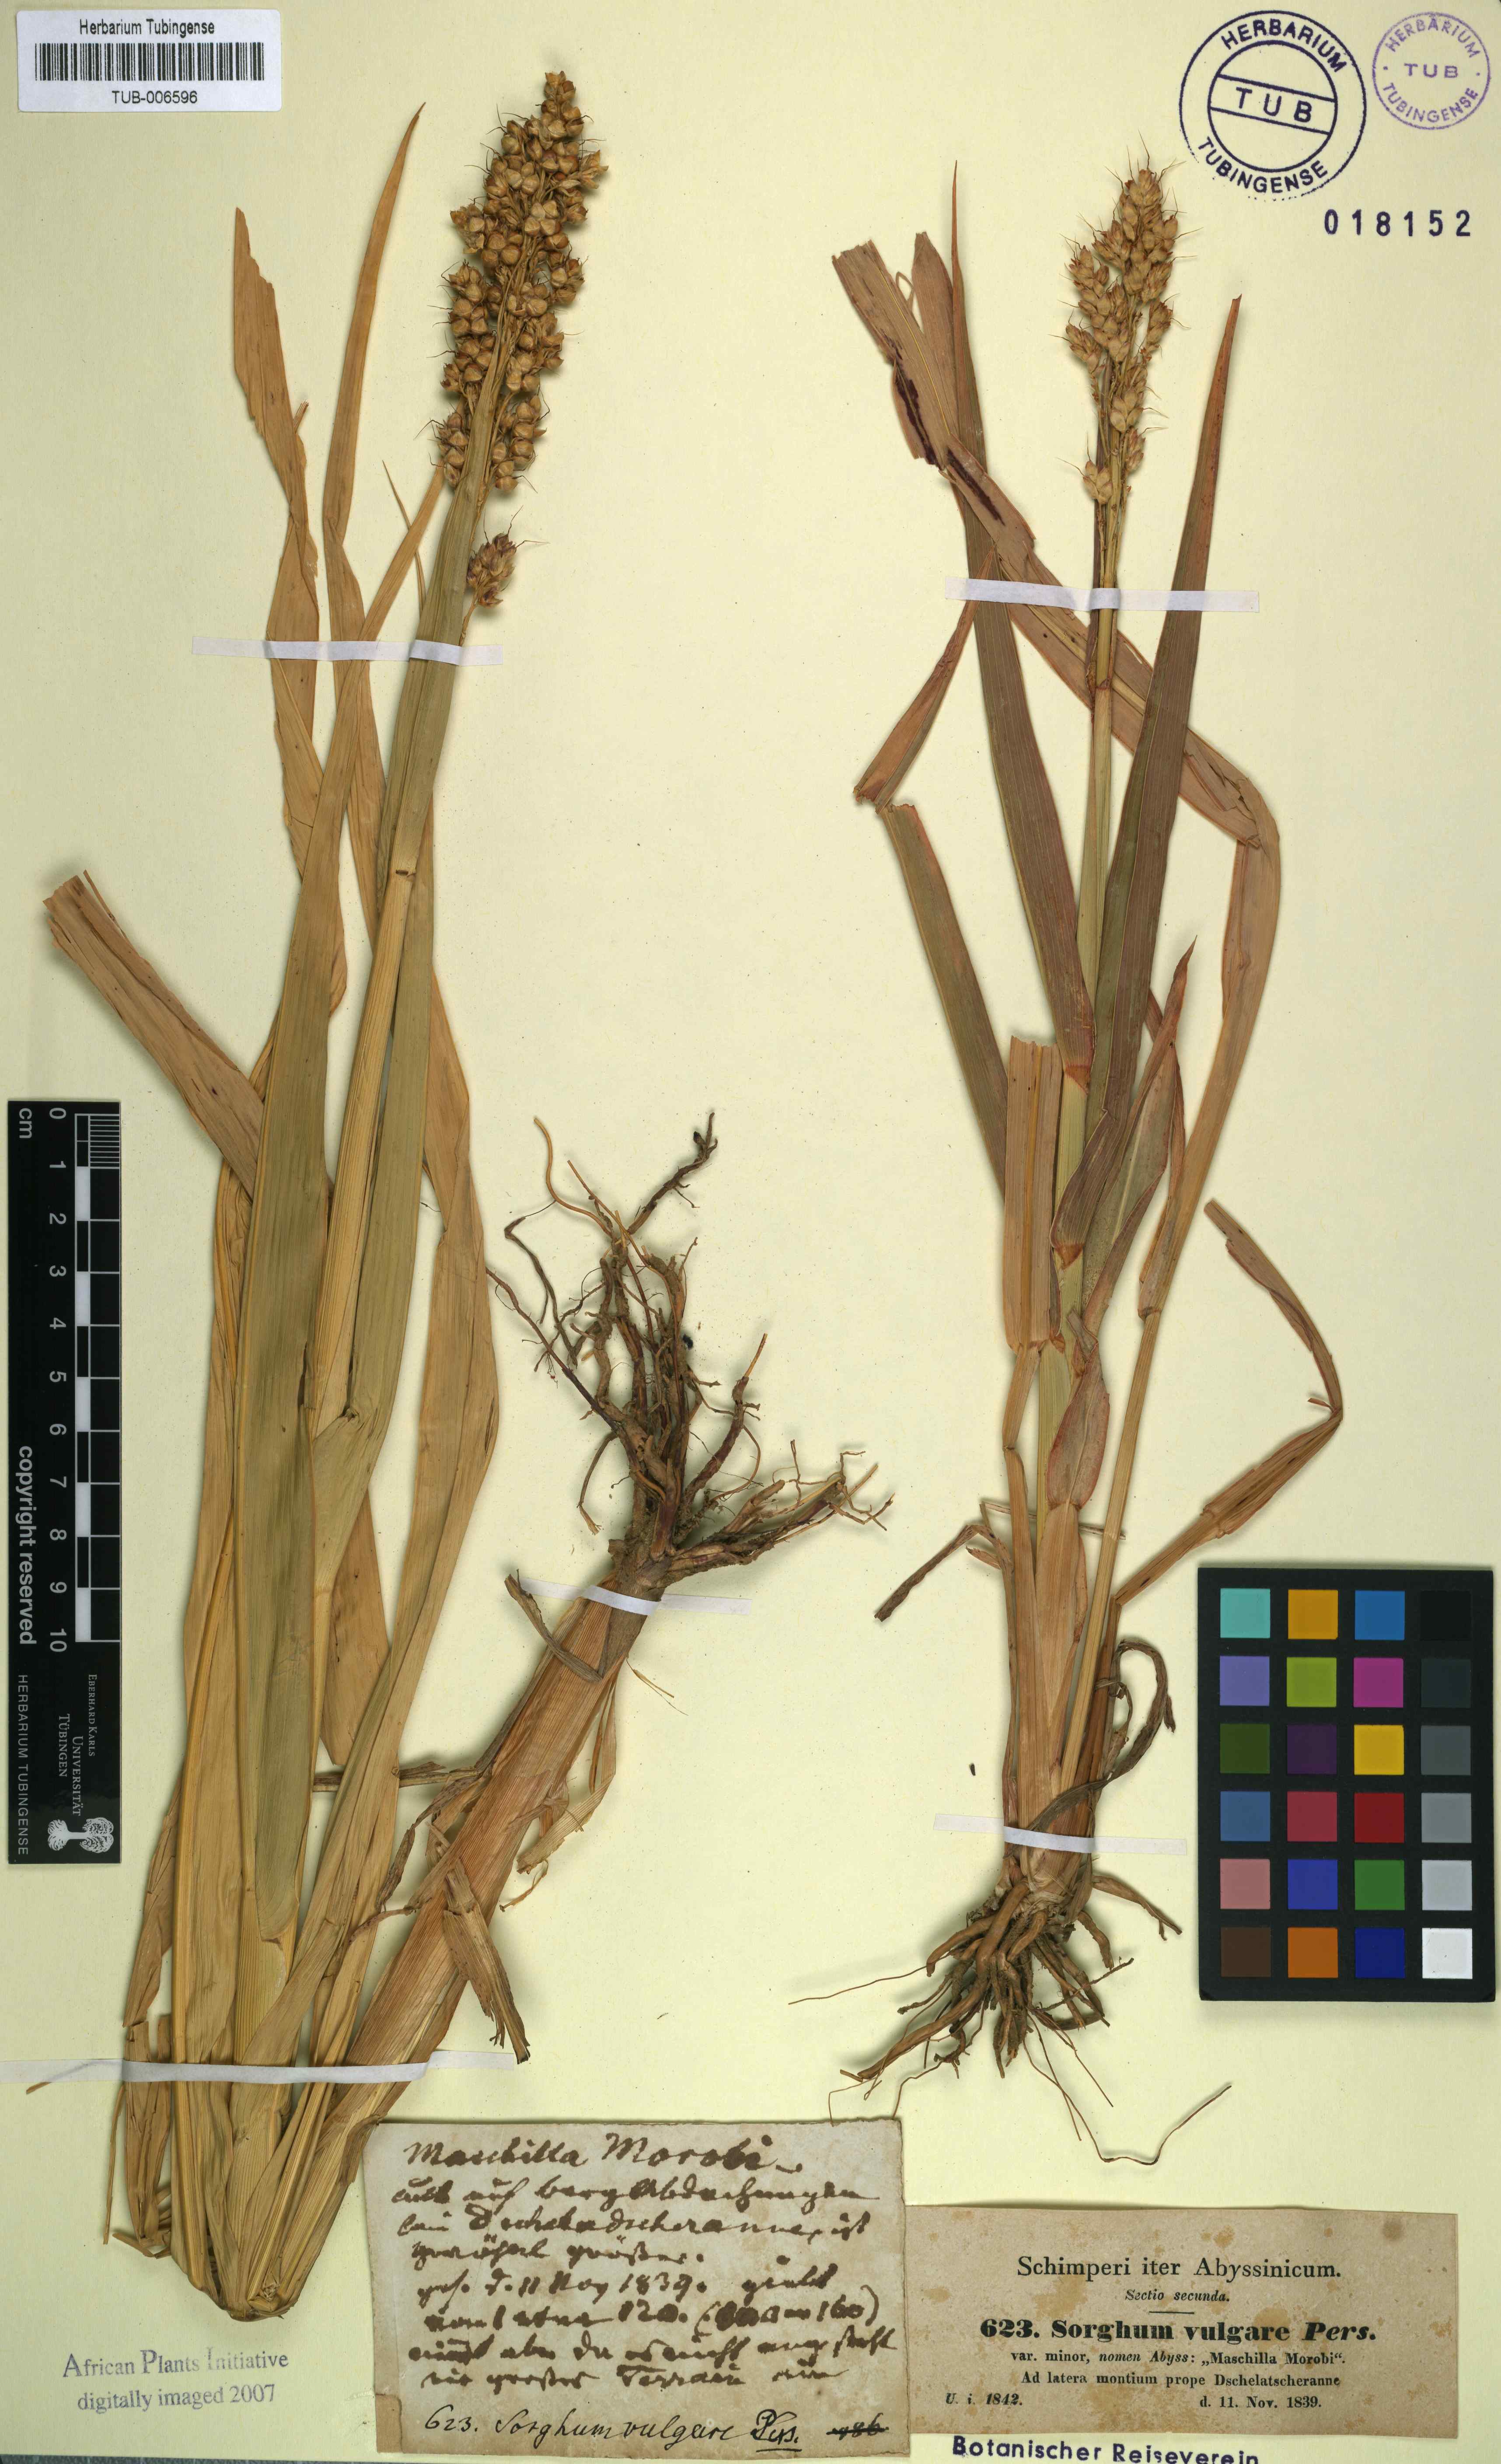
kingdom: Plantae
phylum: Tracheophyta
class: Liliopsida
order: Poales
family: Poaceae
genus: Sorghum
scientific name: Sorghum bicolor
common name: Sorghum
